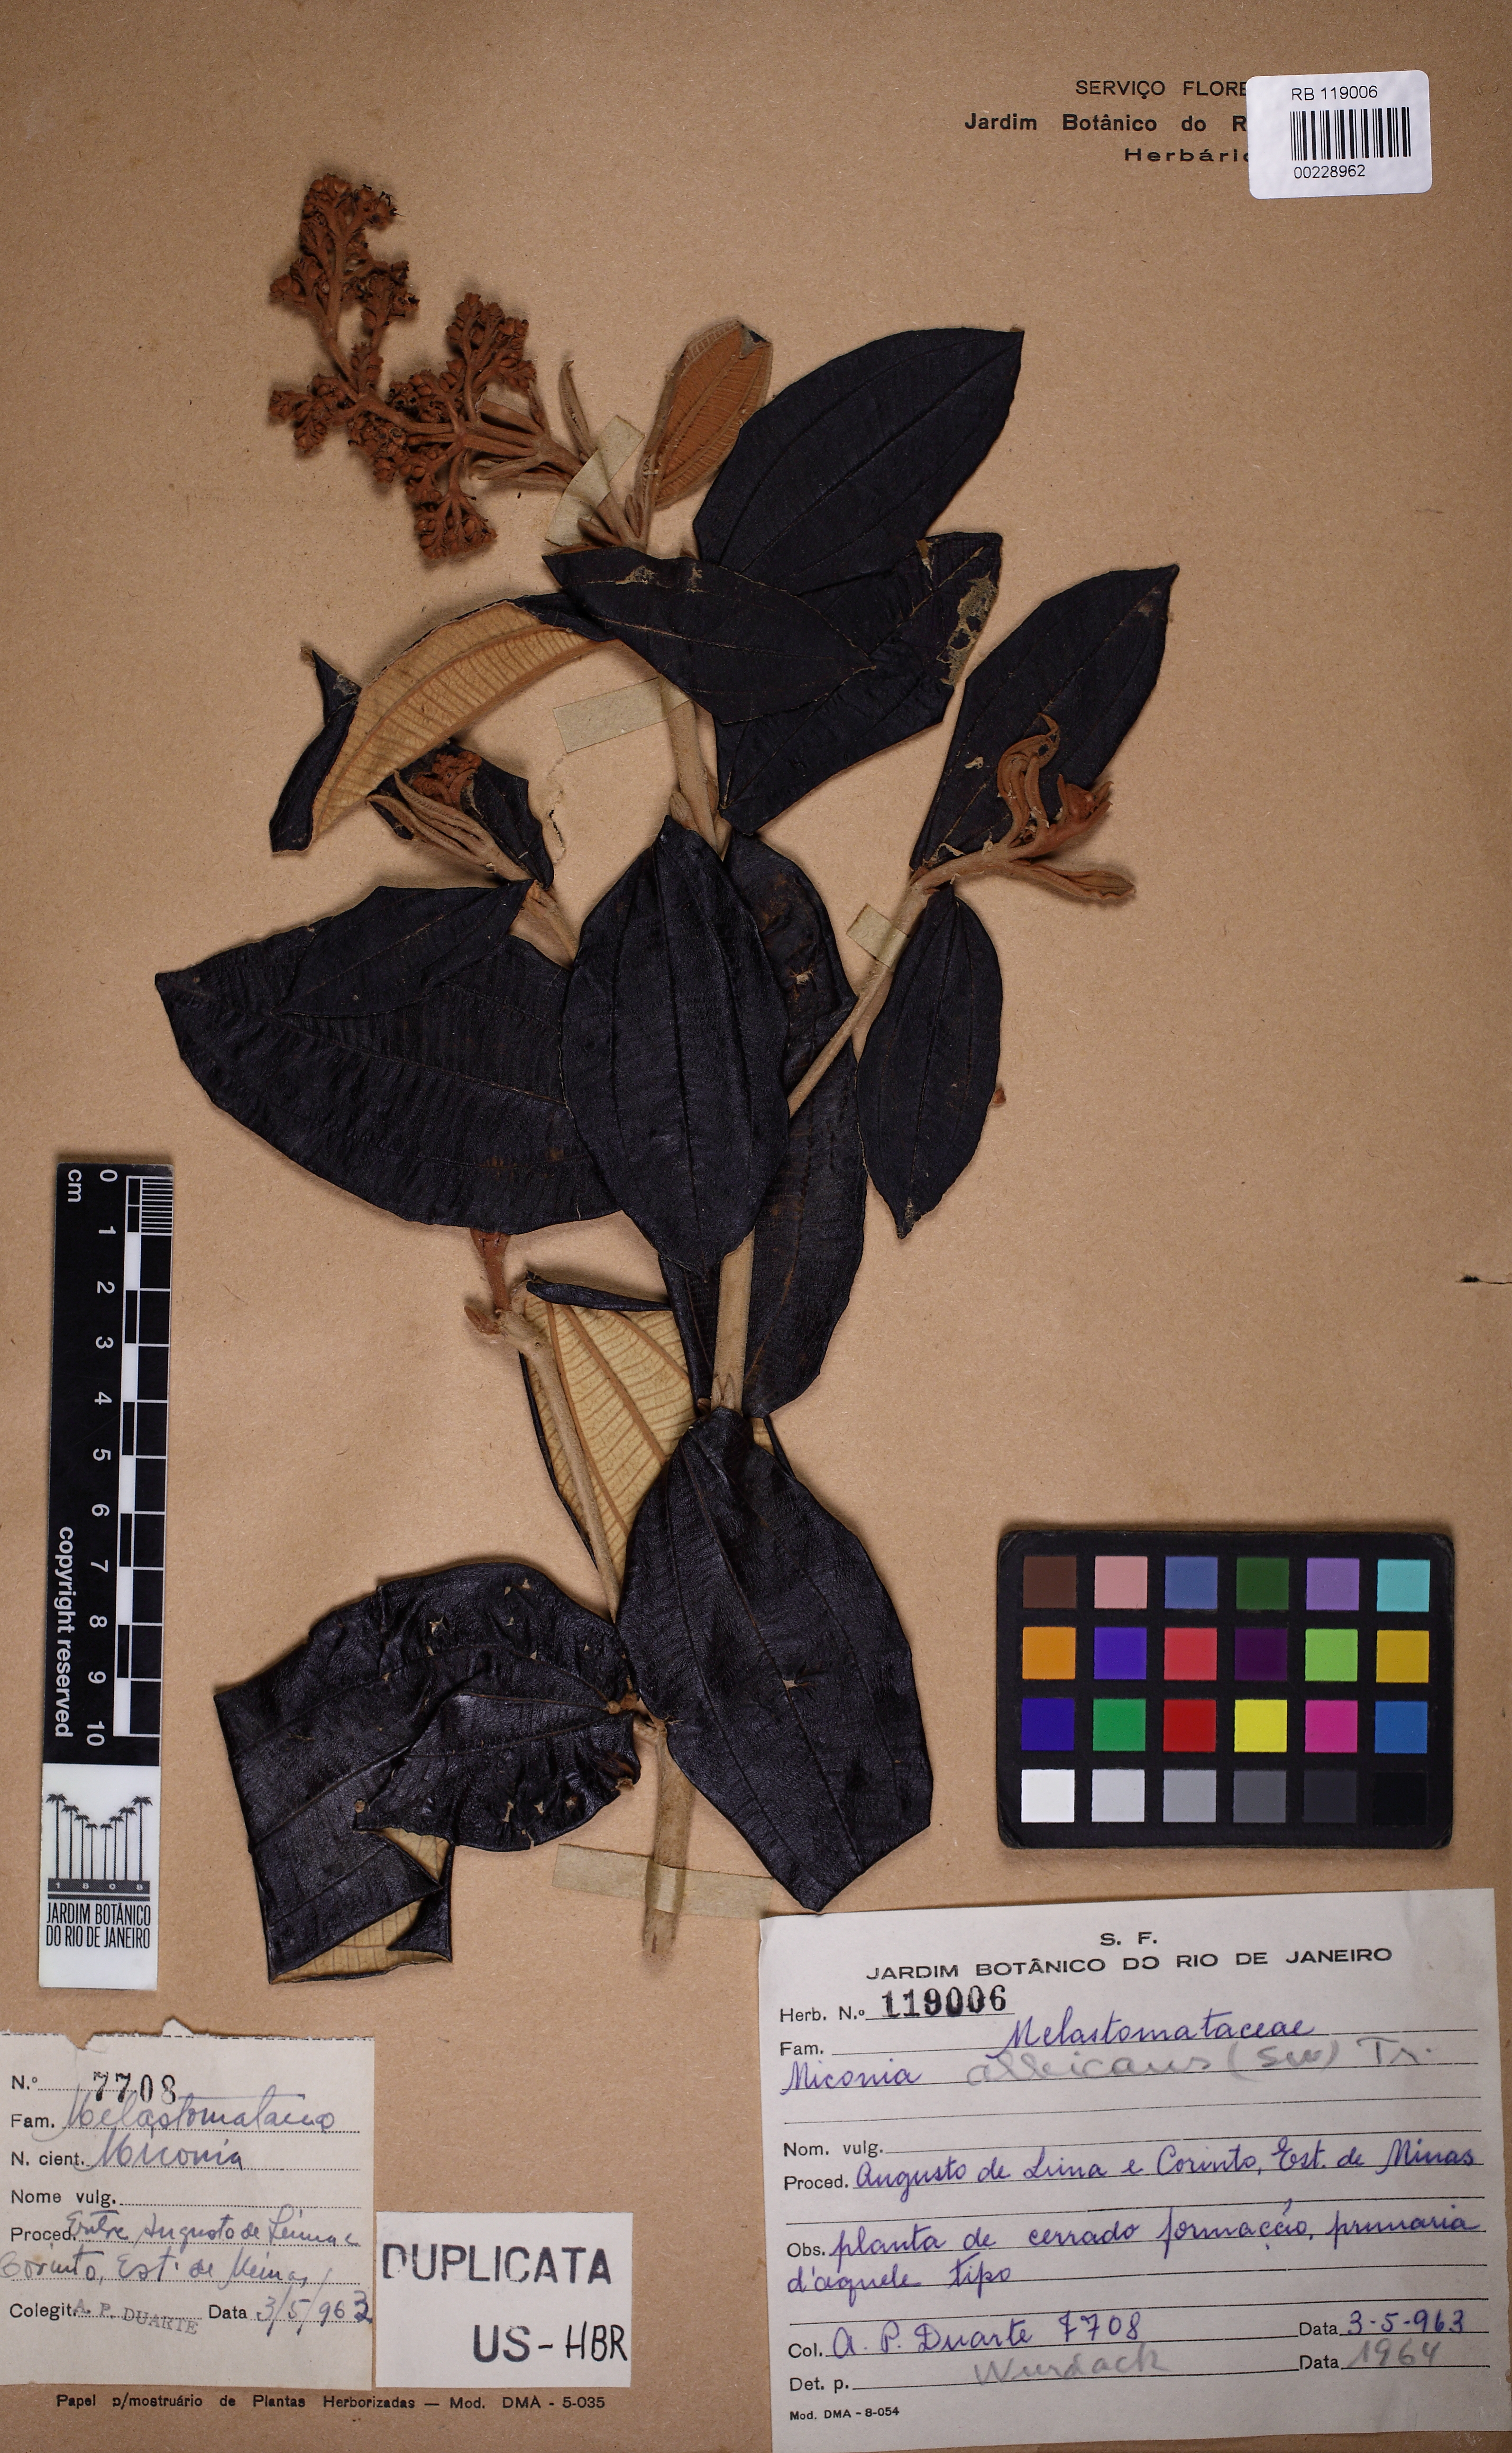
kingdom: Plantae
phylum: Tracheophyta
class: Magnoliopsida
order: Myrtales
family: Melastomataceae
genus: Miconia
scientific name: Miconia albicans
